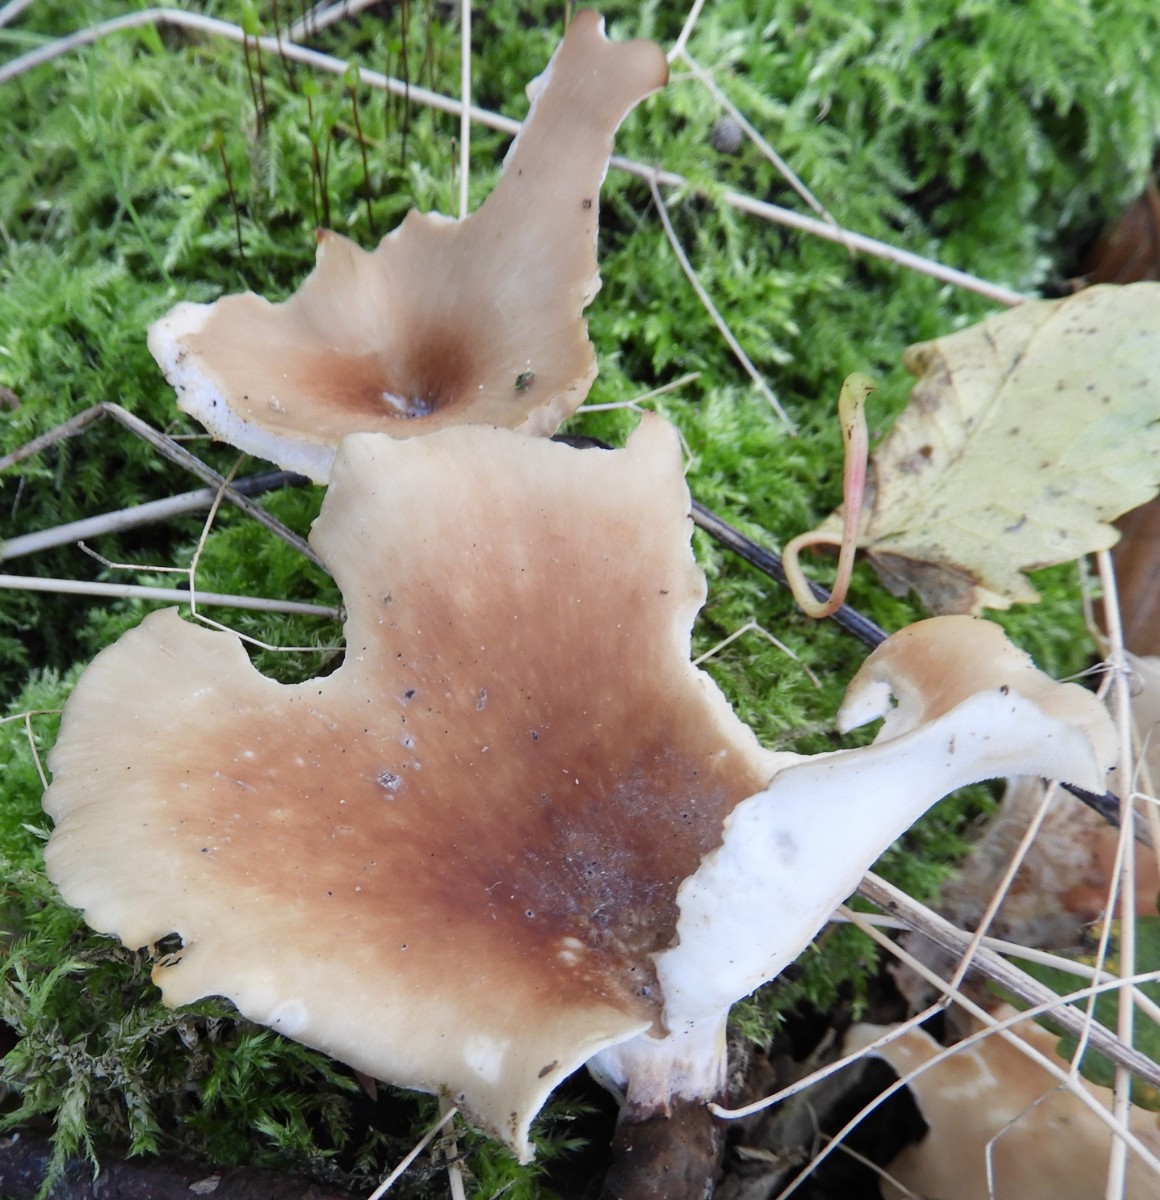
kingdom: Fungi
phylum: Basidiomycota
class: Agaricomycetes
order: Polyporales
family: Polyporaceae
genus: Cerioporus
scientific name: Cerioporus varius
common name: foranderlig stilkporesvamp
